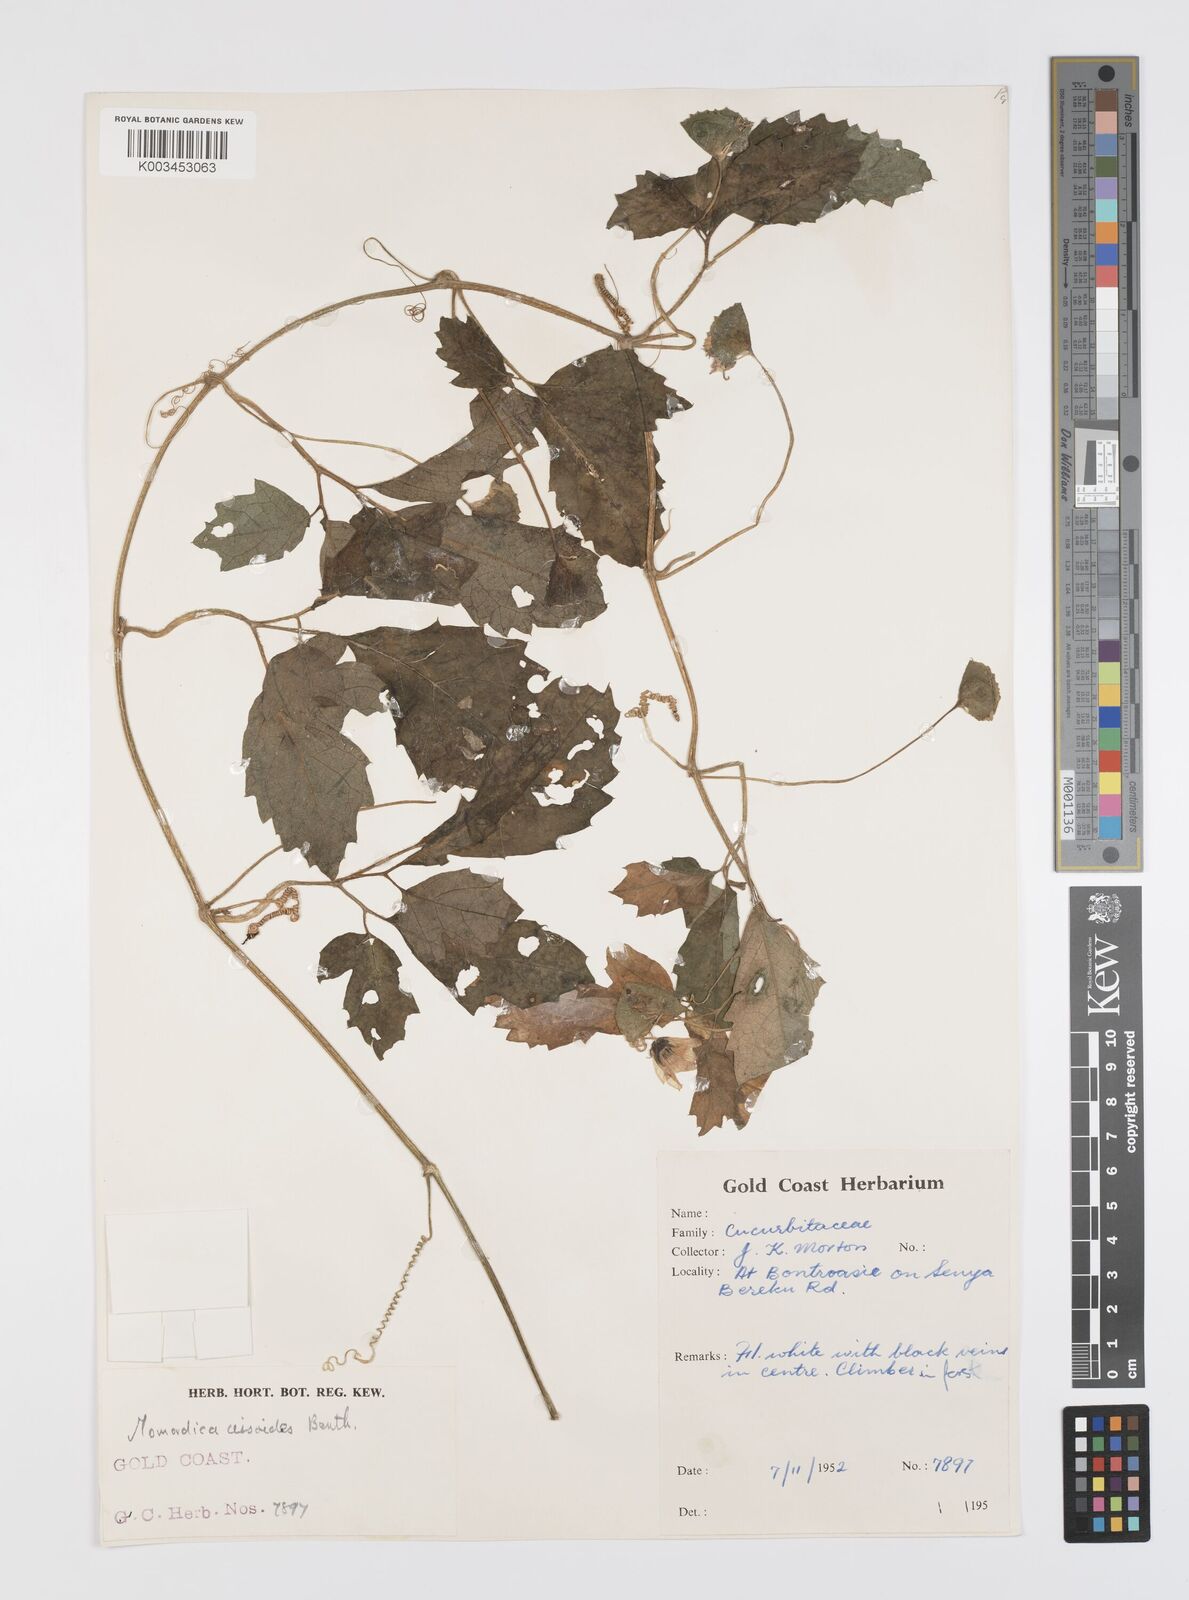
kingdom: Plantae
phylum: Tracheophyta
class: Magnoliopsida
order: Cucurbitales
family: Cucurbitaceae
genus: Momordica
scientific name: Momordica cissoides
